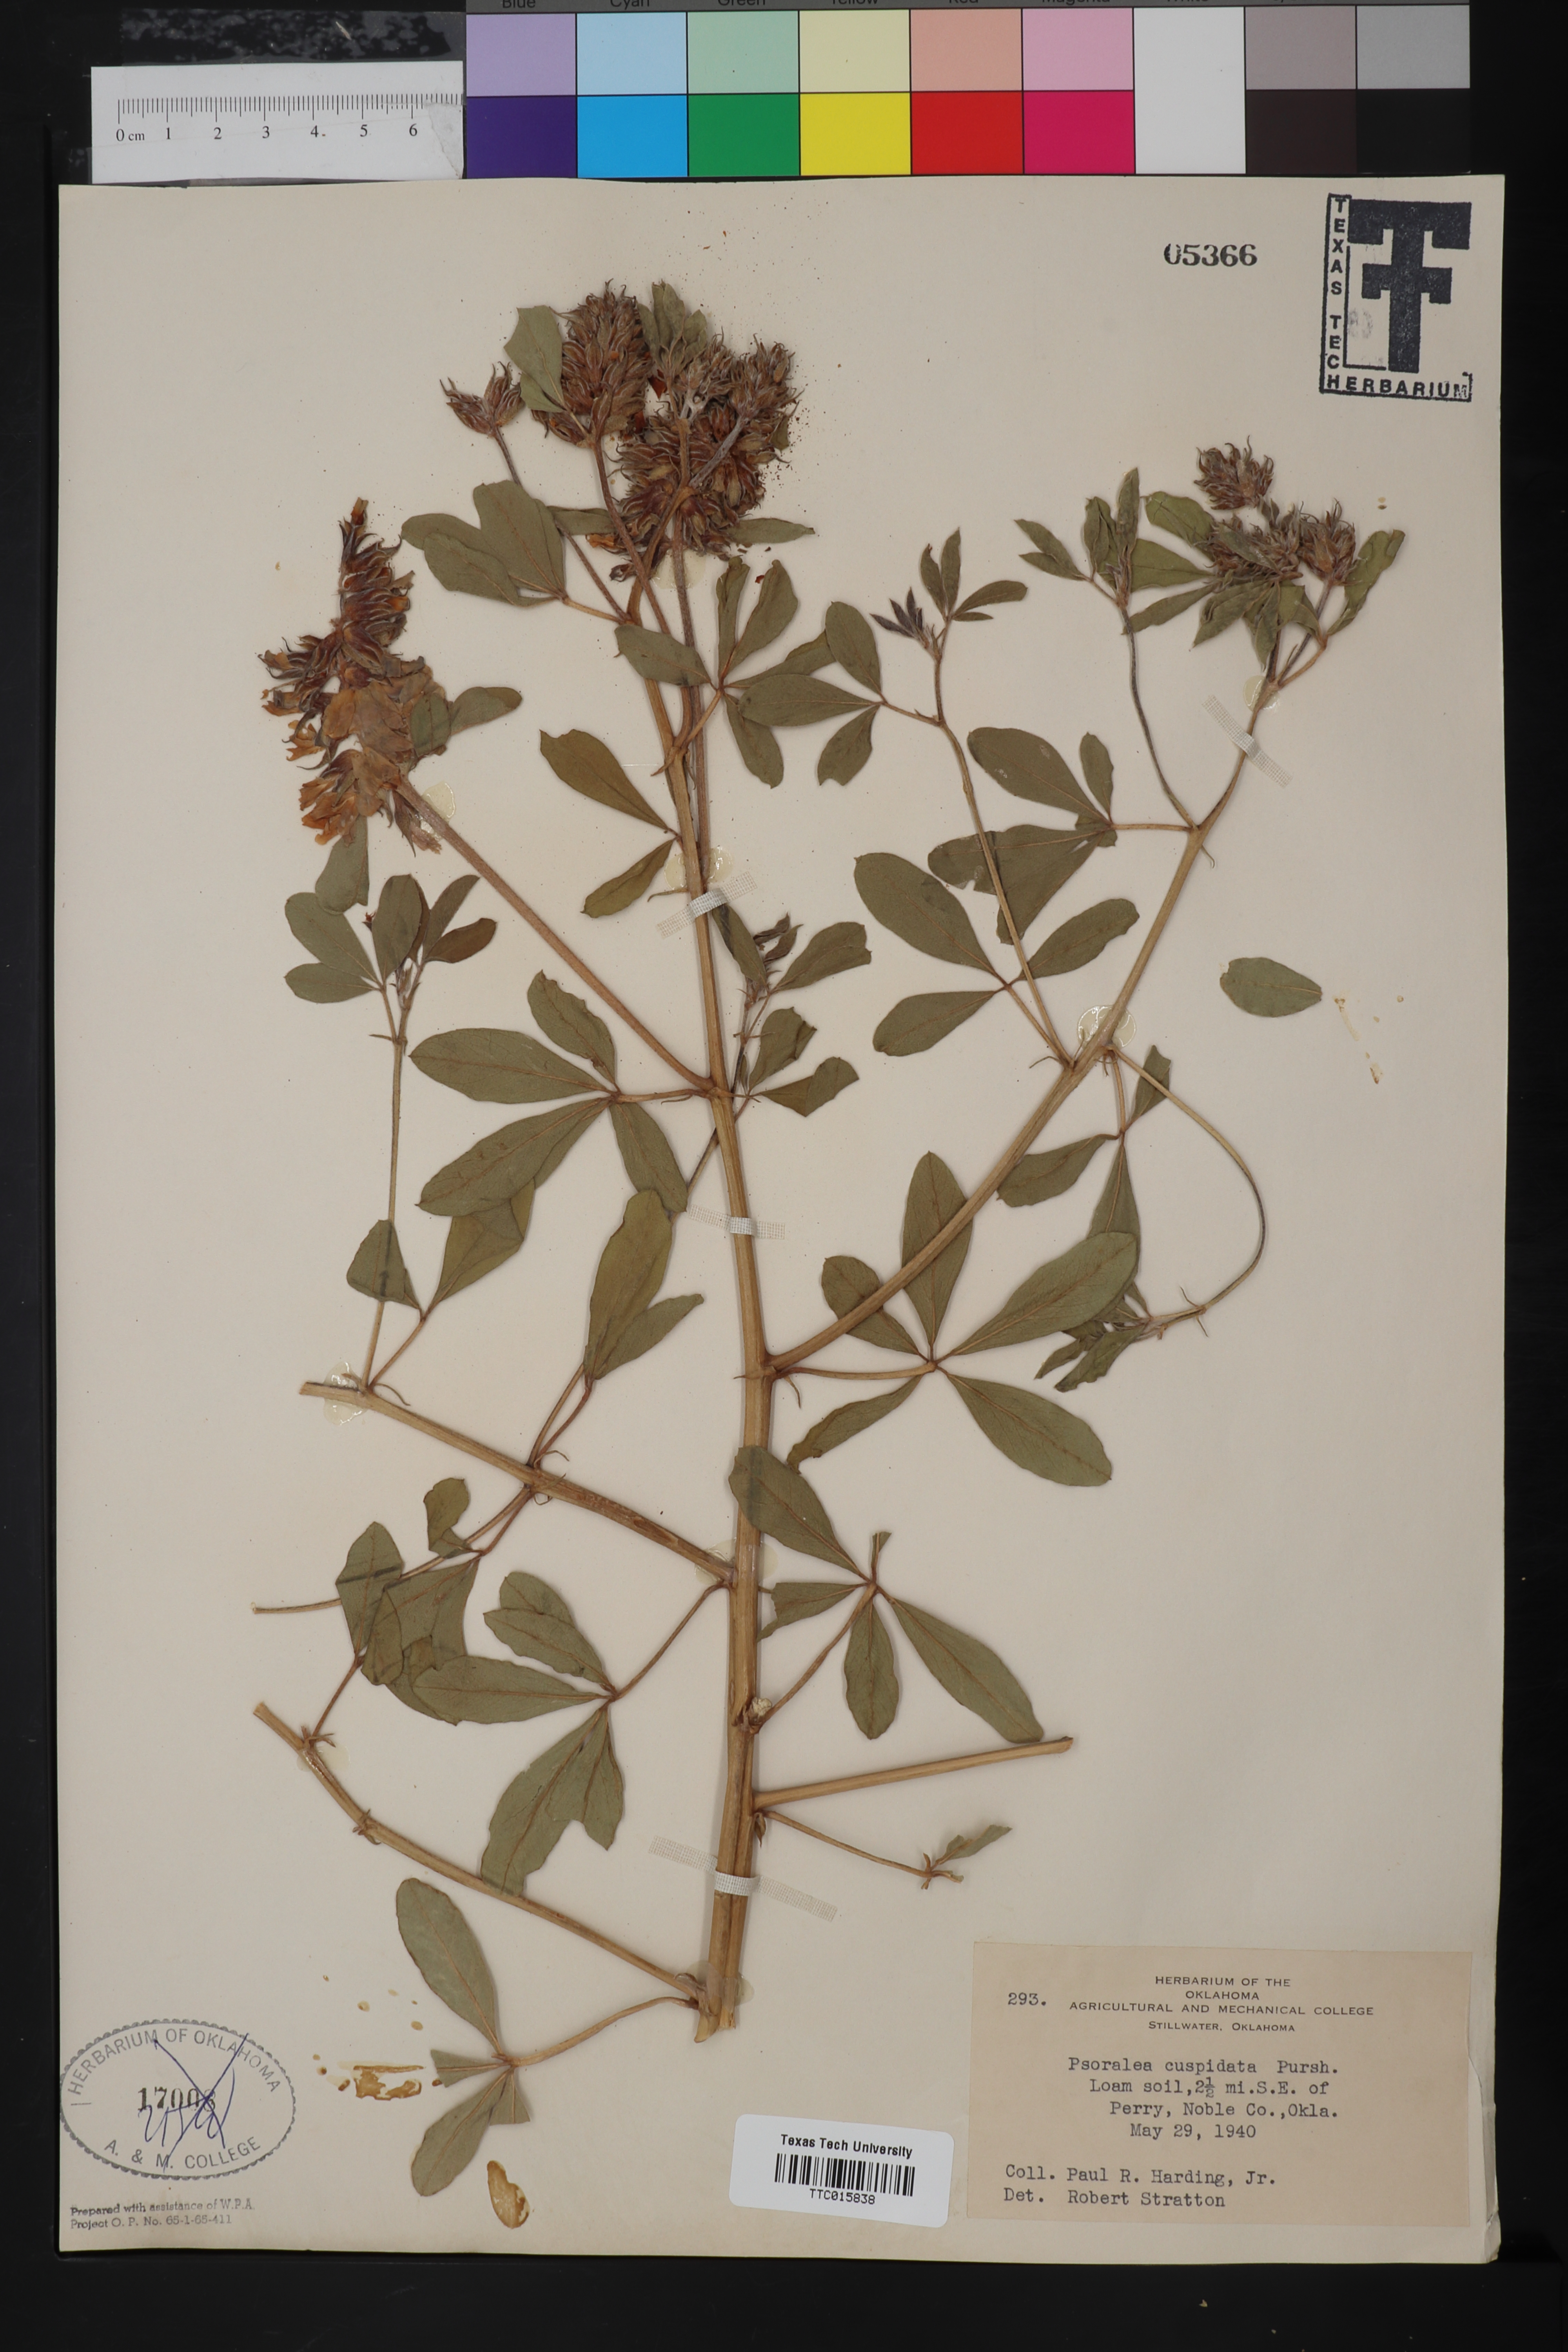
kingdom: Plantae
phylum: Tracheophyta
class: Magnoliopsida
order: Fabales
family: Fabaceae
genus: Pediomelum
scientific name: Pediomelum cuspidatum
